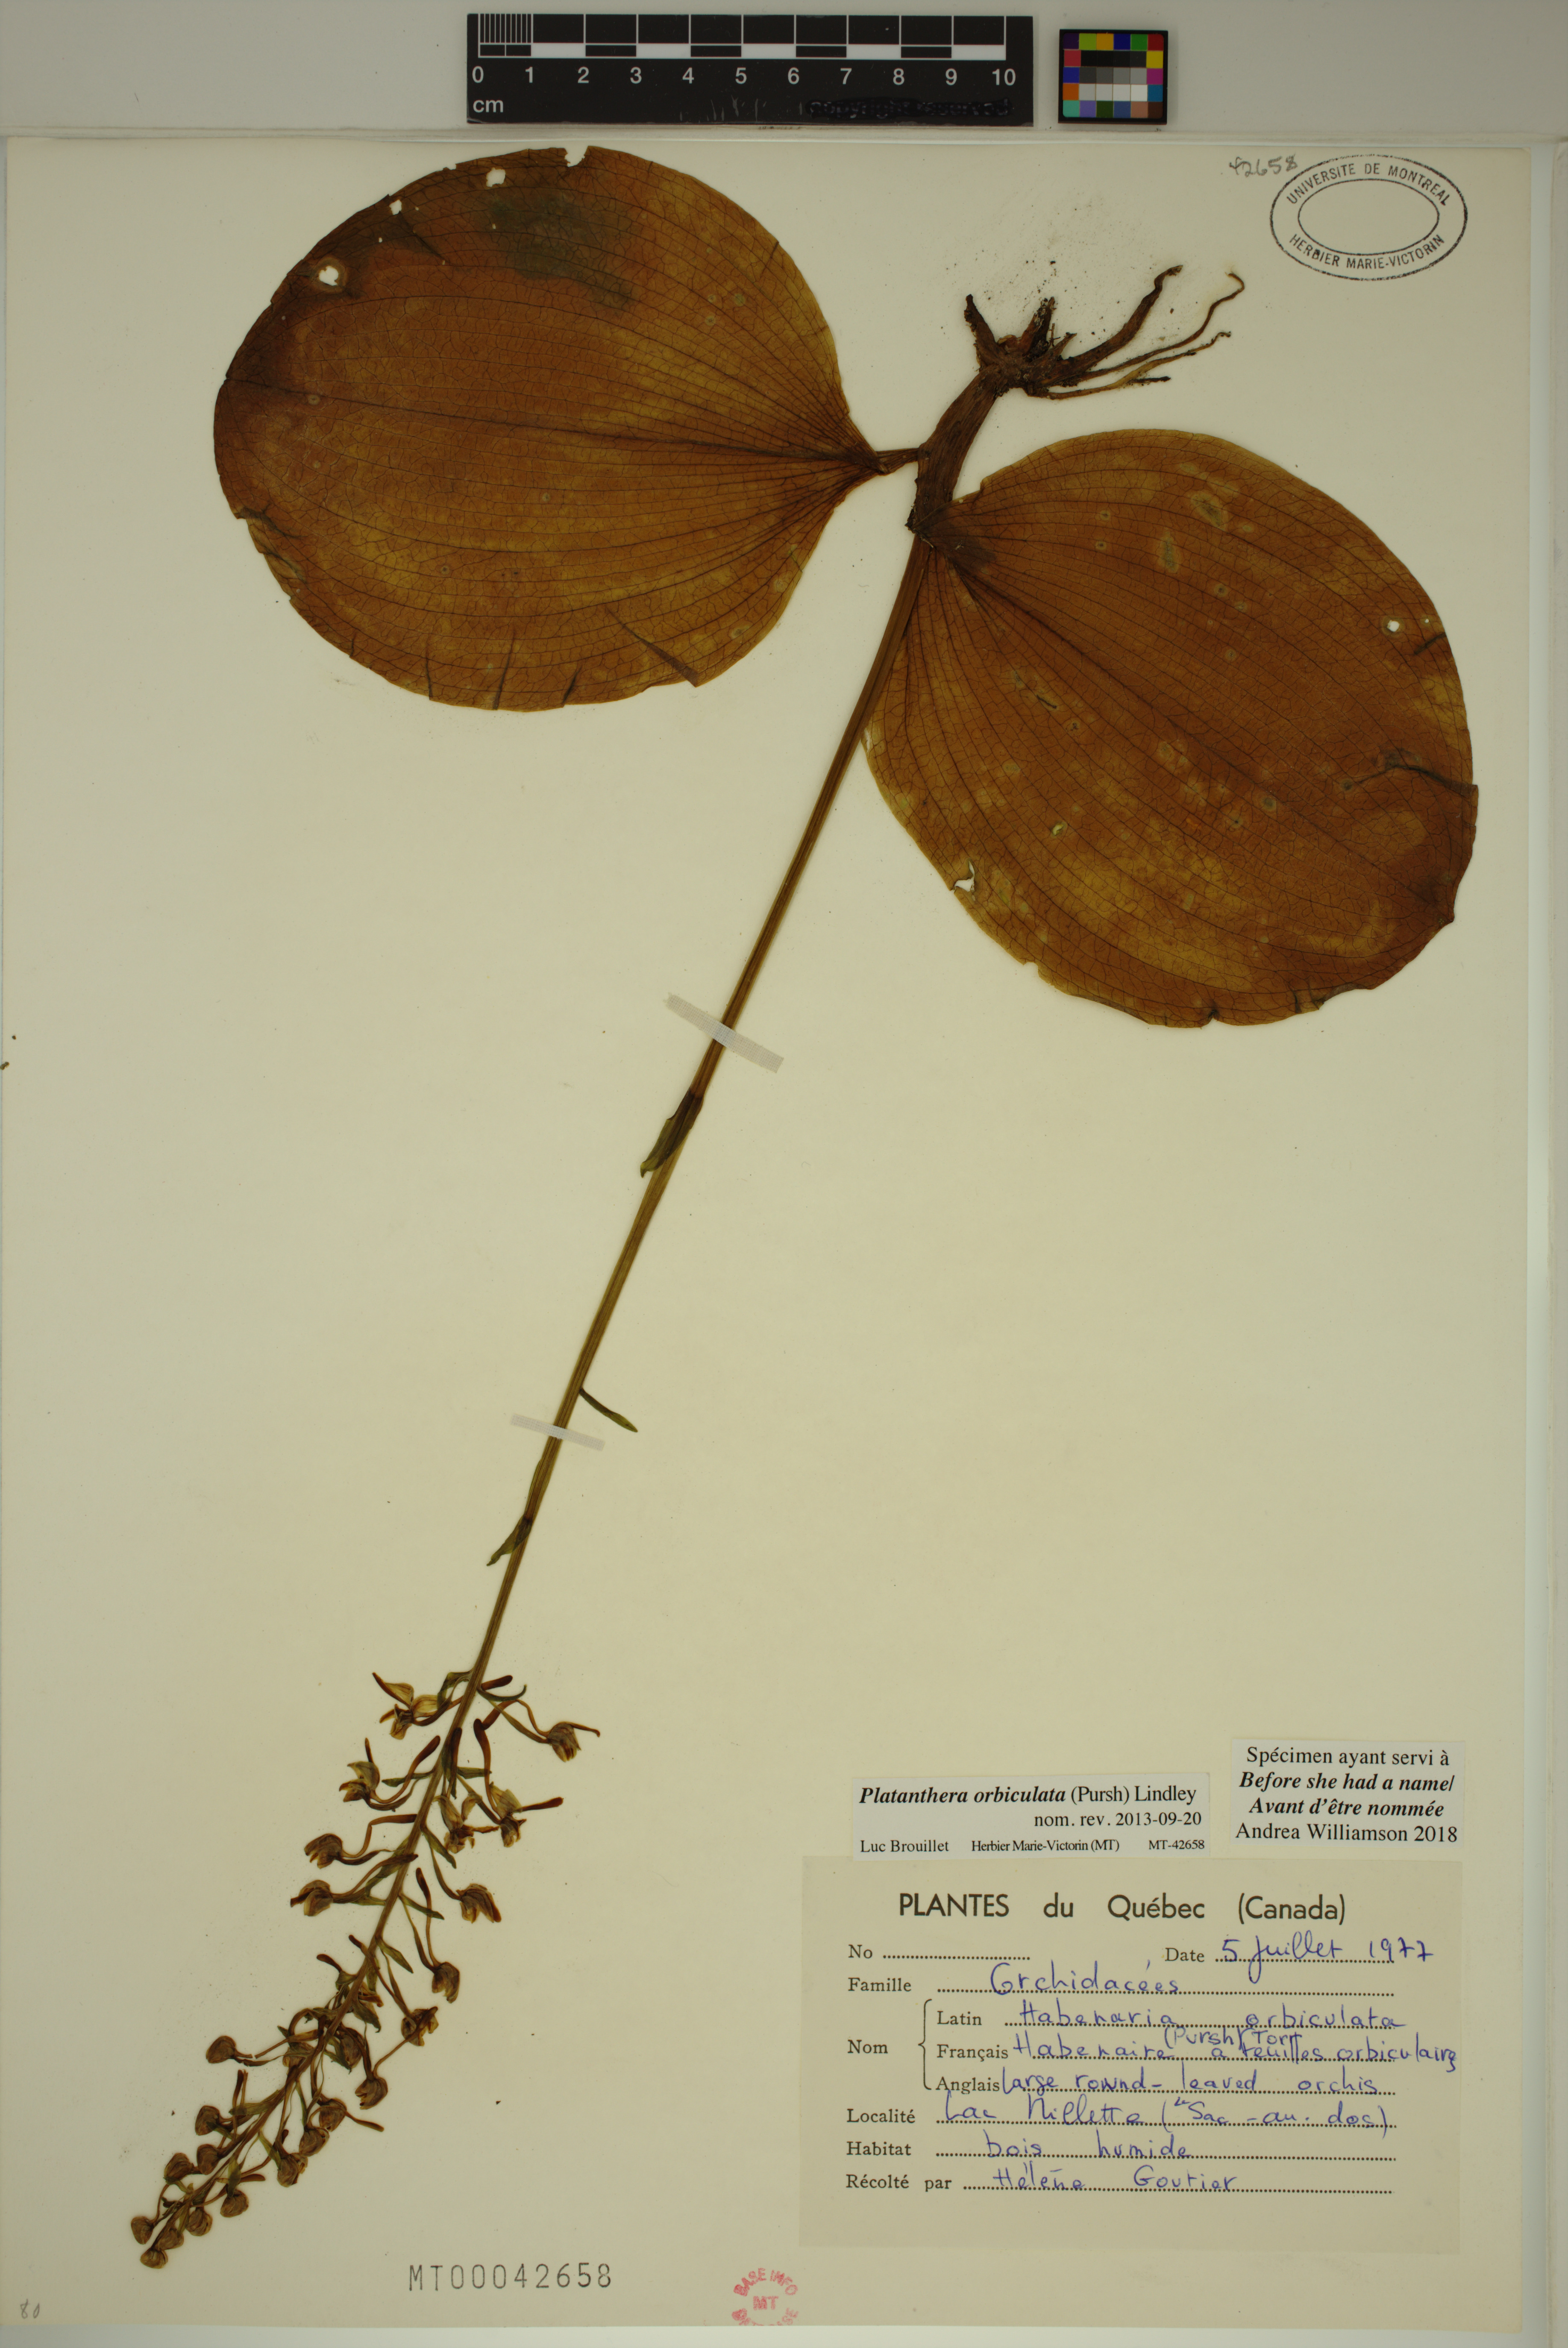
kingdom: Plantae
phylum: Tracheophyta
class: Liliopsida
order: Asparagales
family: Orchidaceae
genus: Platanthera
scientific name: Platanthera orbiculata
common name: Large round-leaved orchid
